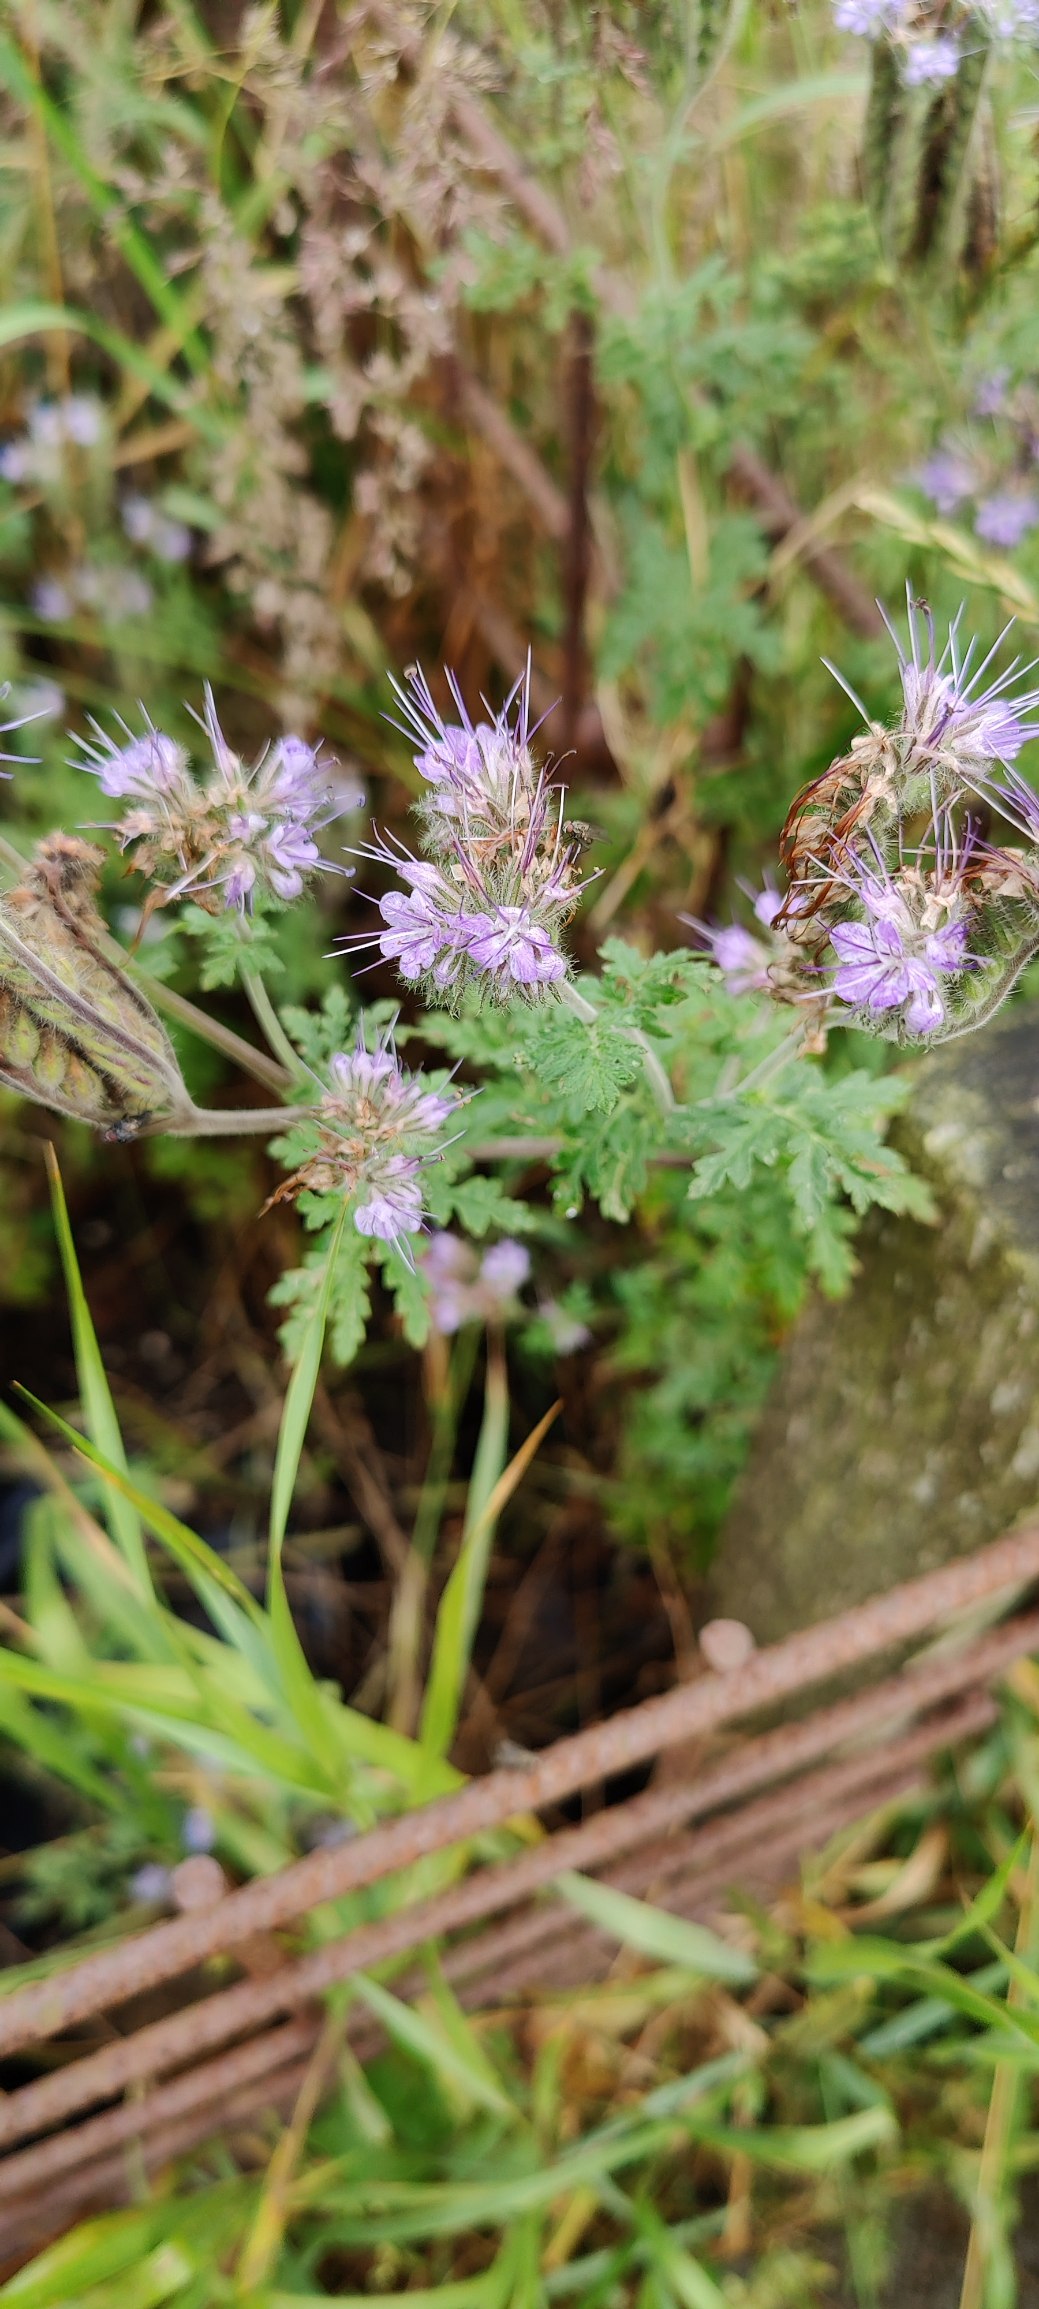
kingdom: Plantae
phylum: Tracheophyta
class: Magnoliopsida
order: Boraginales
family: Hydrophyllaceae
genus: Phacelia
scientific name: Phacelia tanacetifolia
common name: Honningurt
